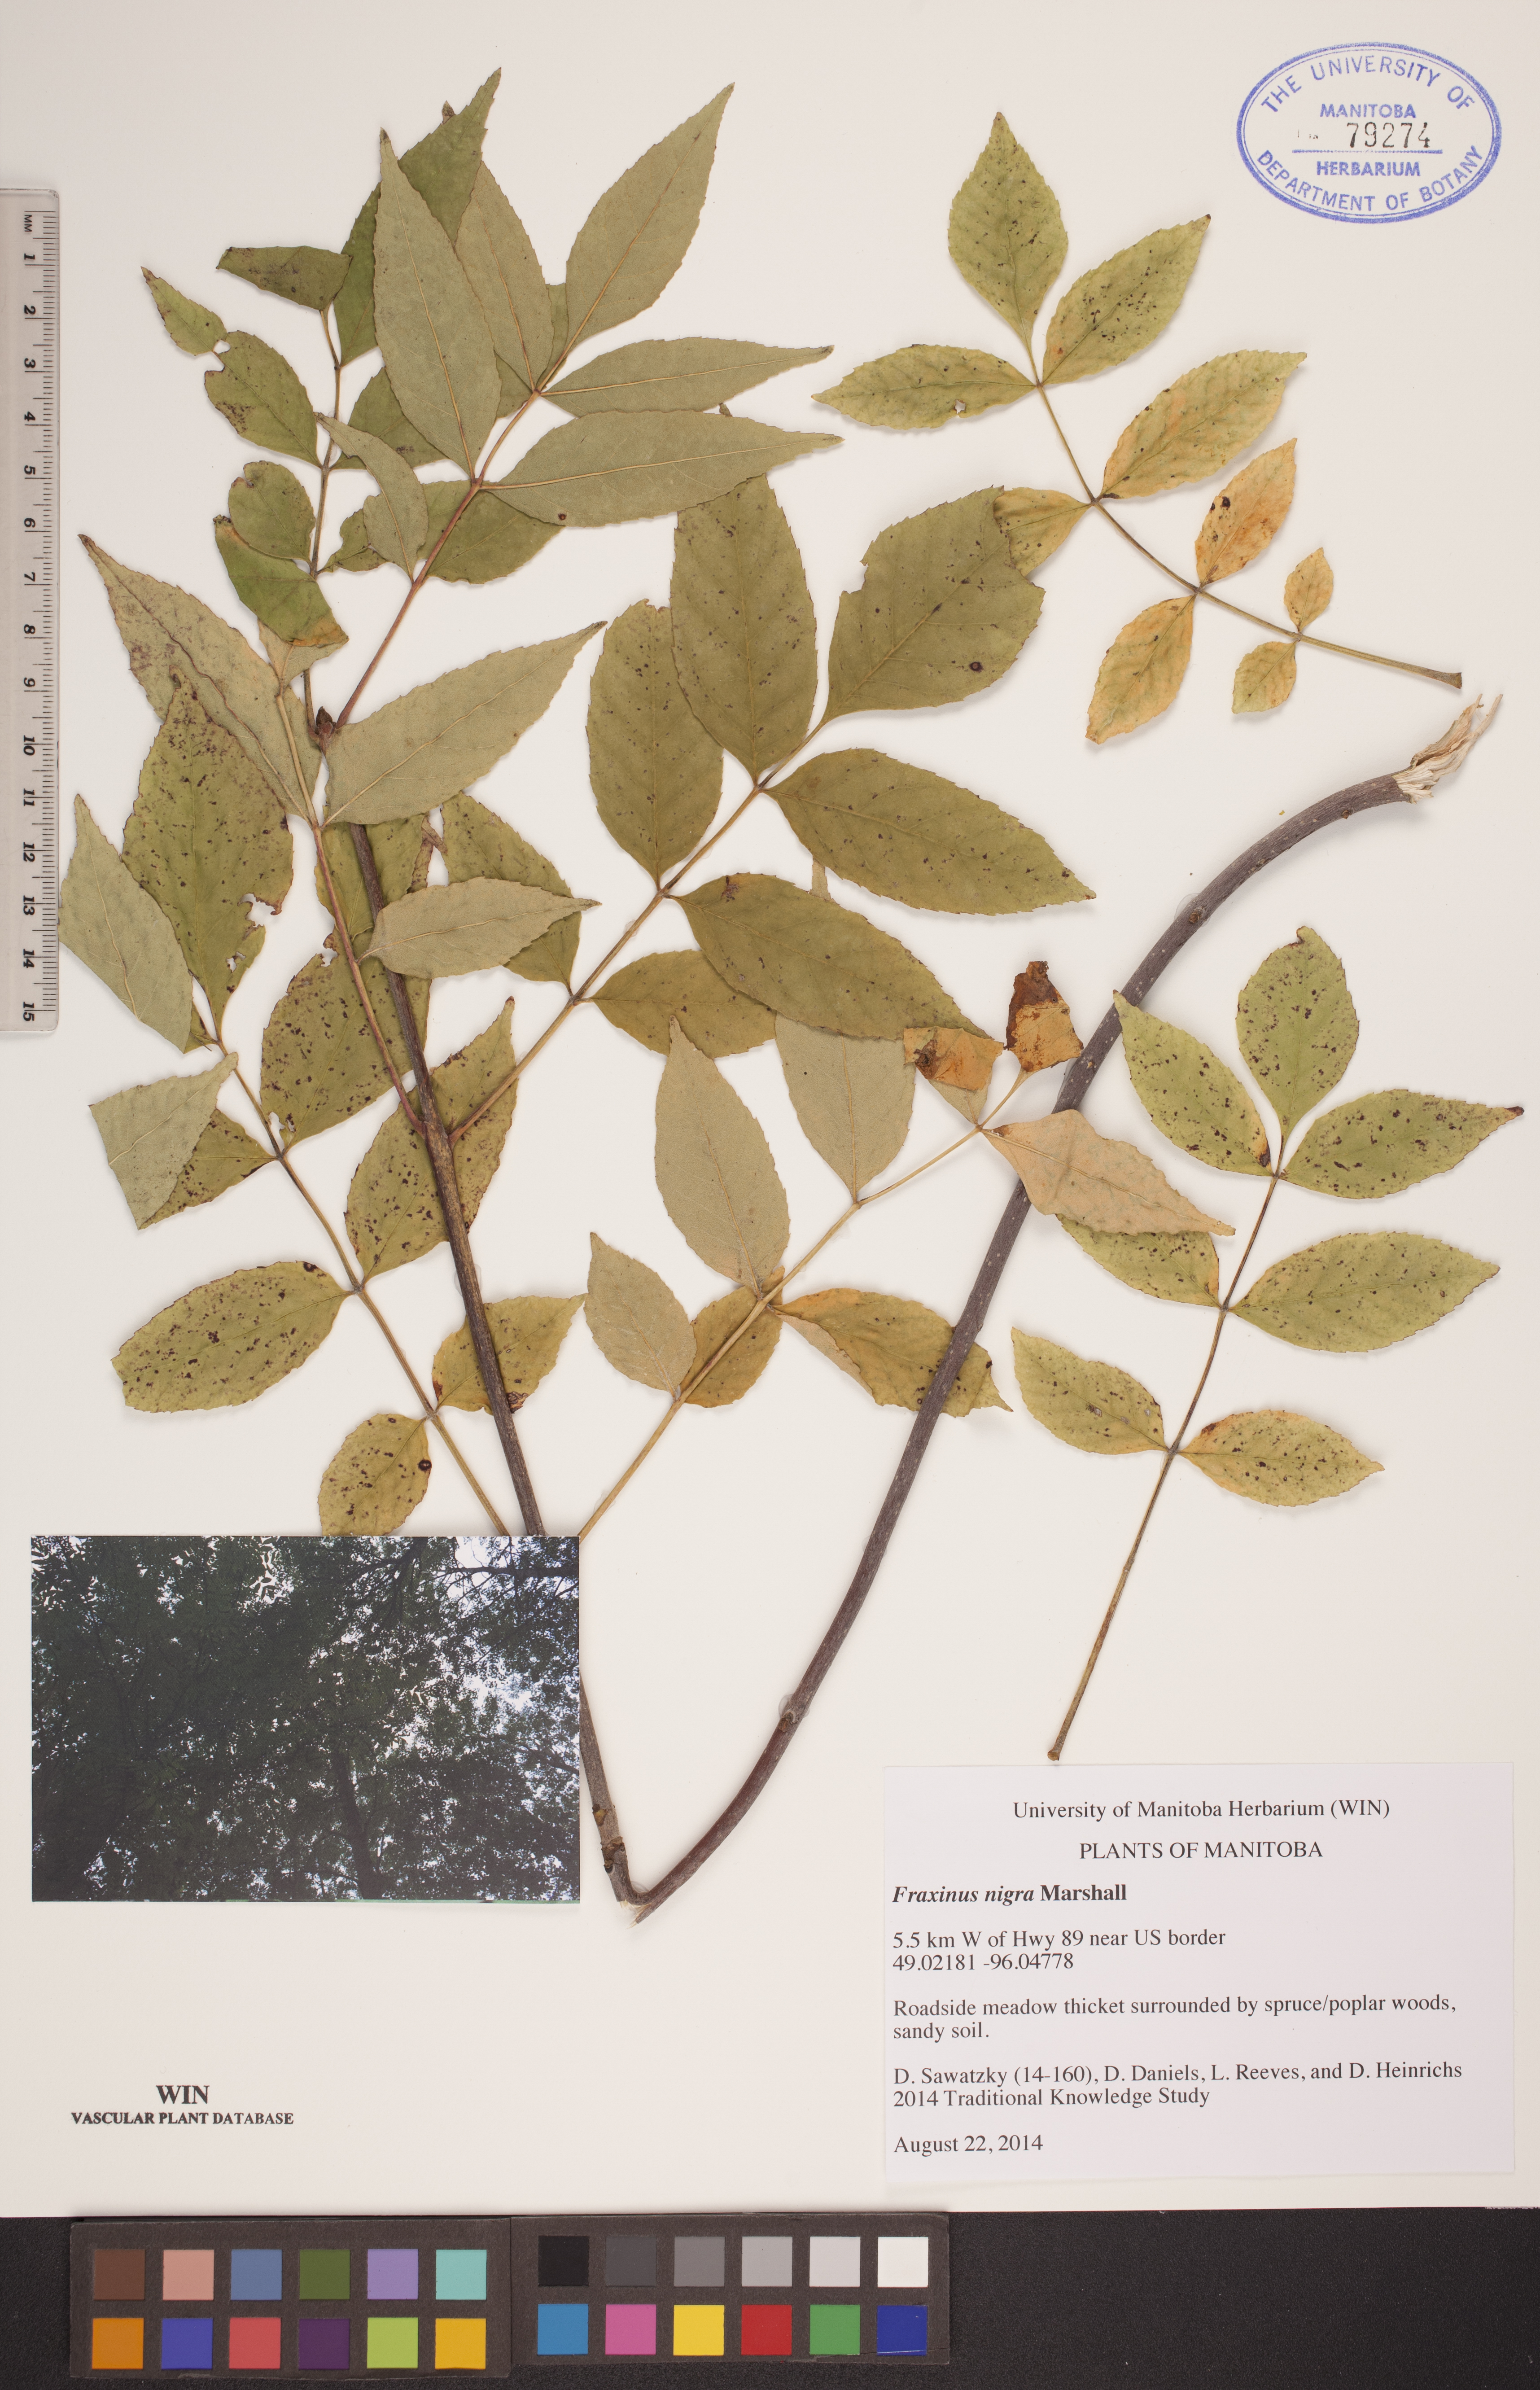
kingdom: Plantae
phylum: Tracheophyta
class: Magnoliopsida
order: Lamiales
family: Oleaceae
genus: Fraxinus
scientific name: Fraxinus nigra
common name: Black ash
